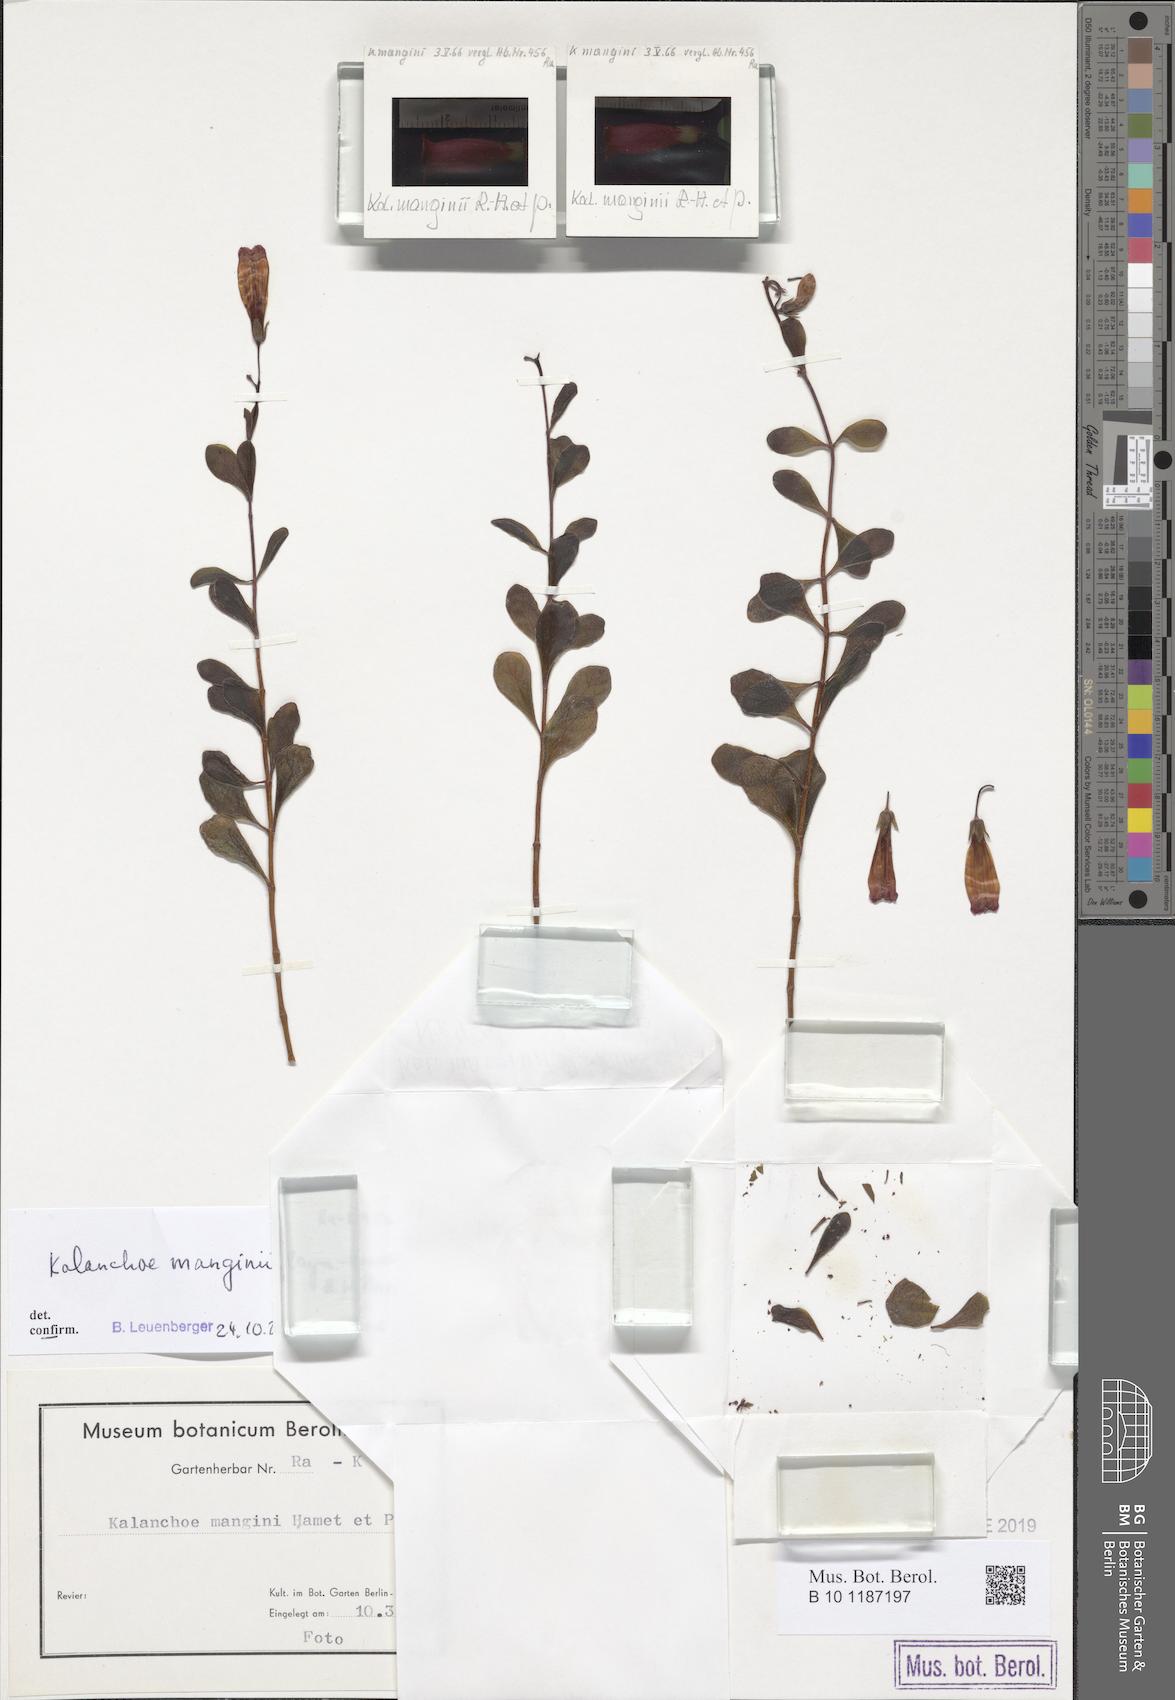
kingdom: Plantae
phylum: Tracheophyta
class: Magnoliopsida
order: Saxifragales
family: Crassulaceae
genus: Kalanchoe
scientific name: Kalanchoe manginii
